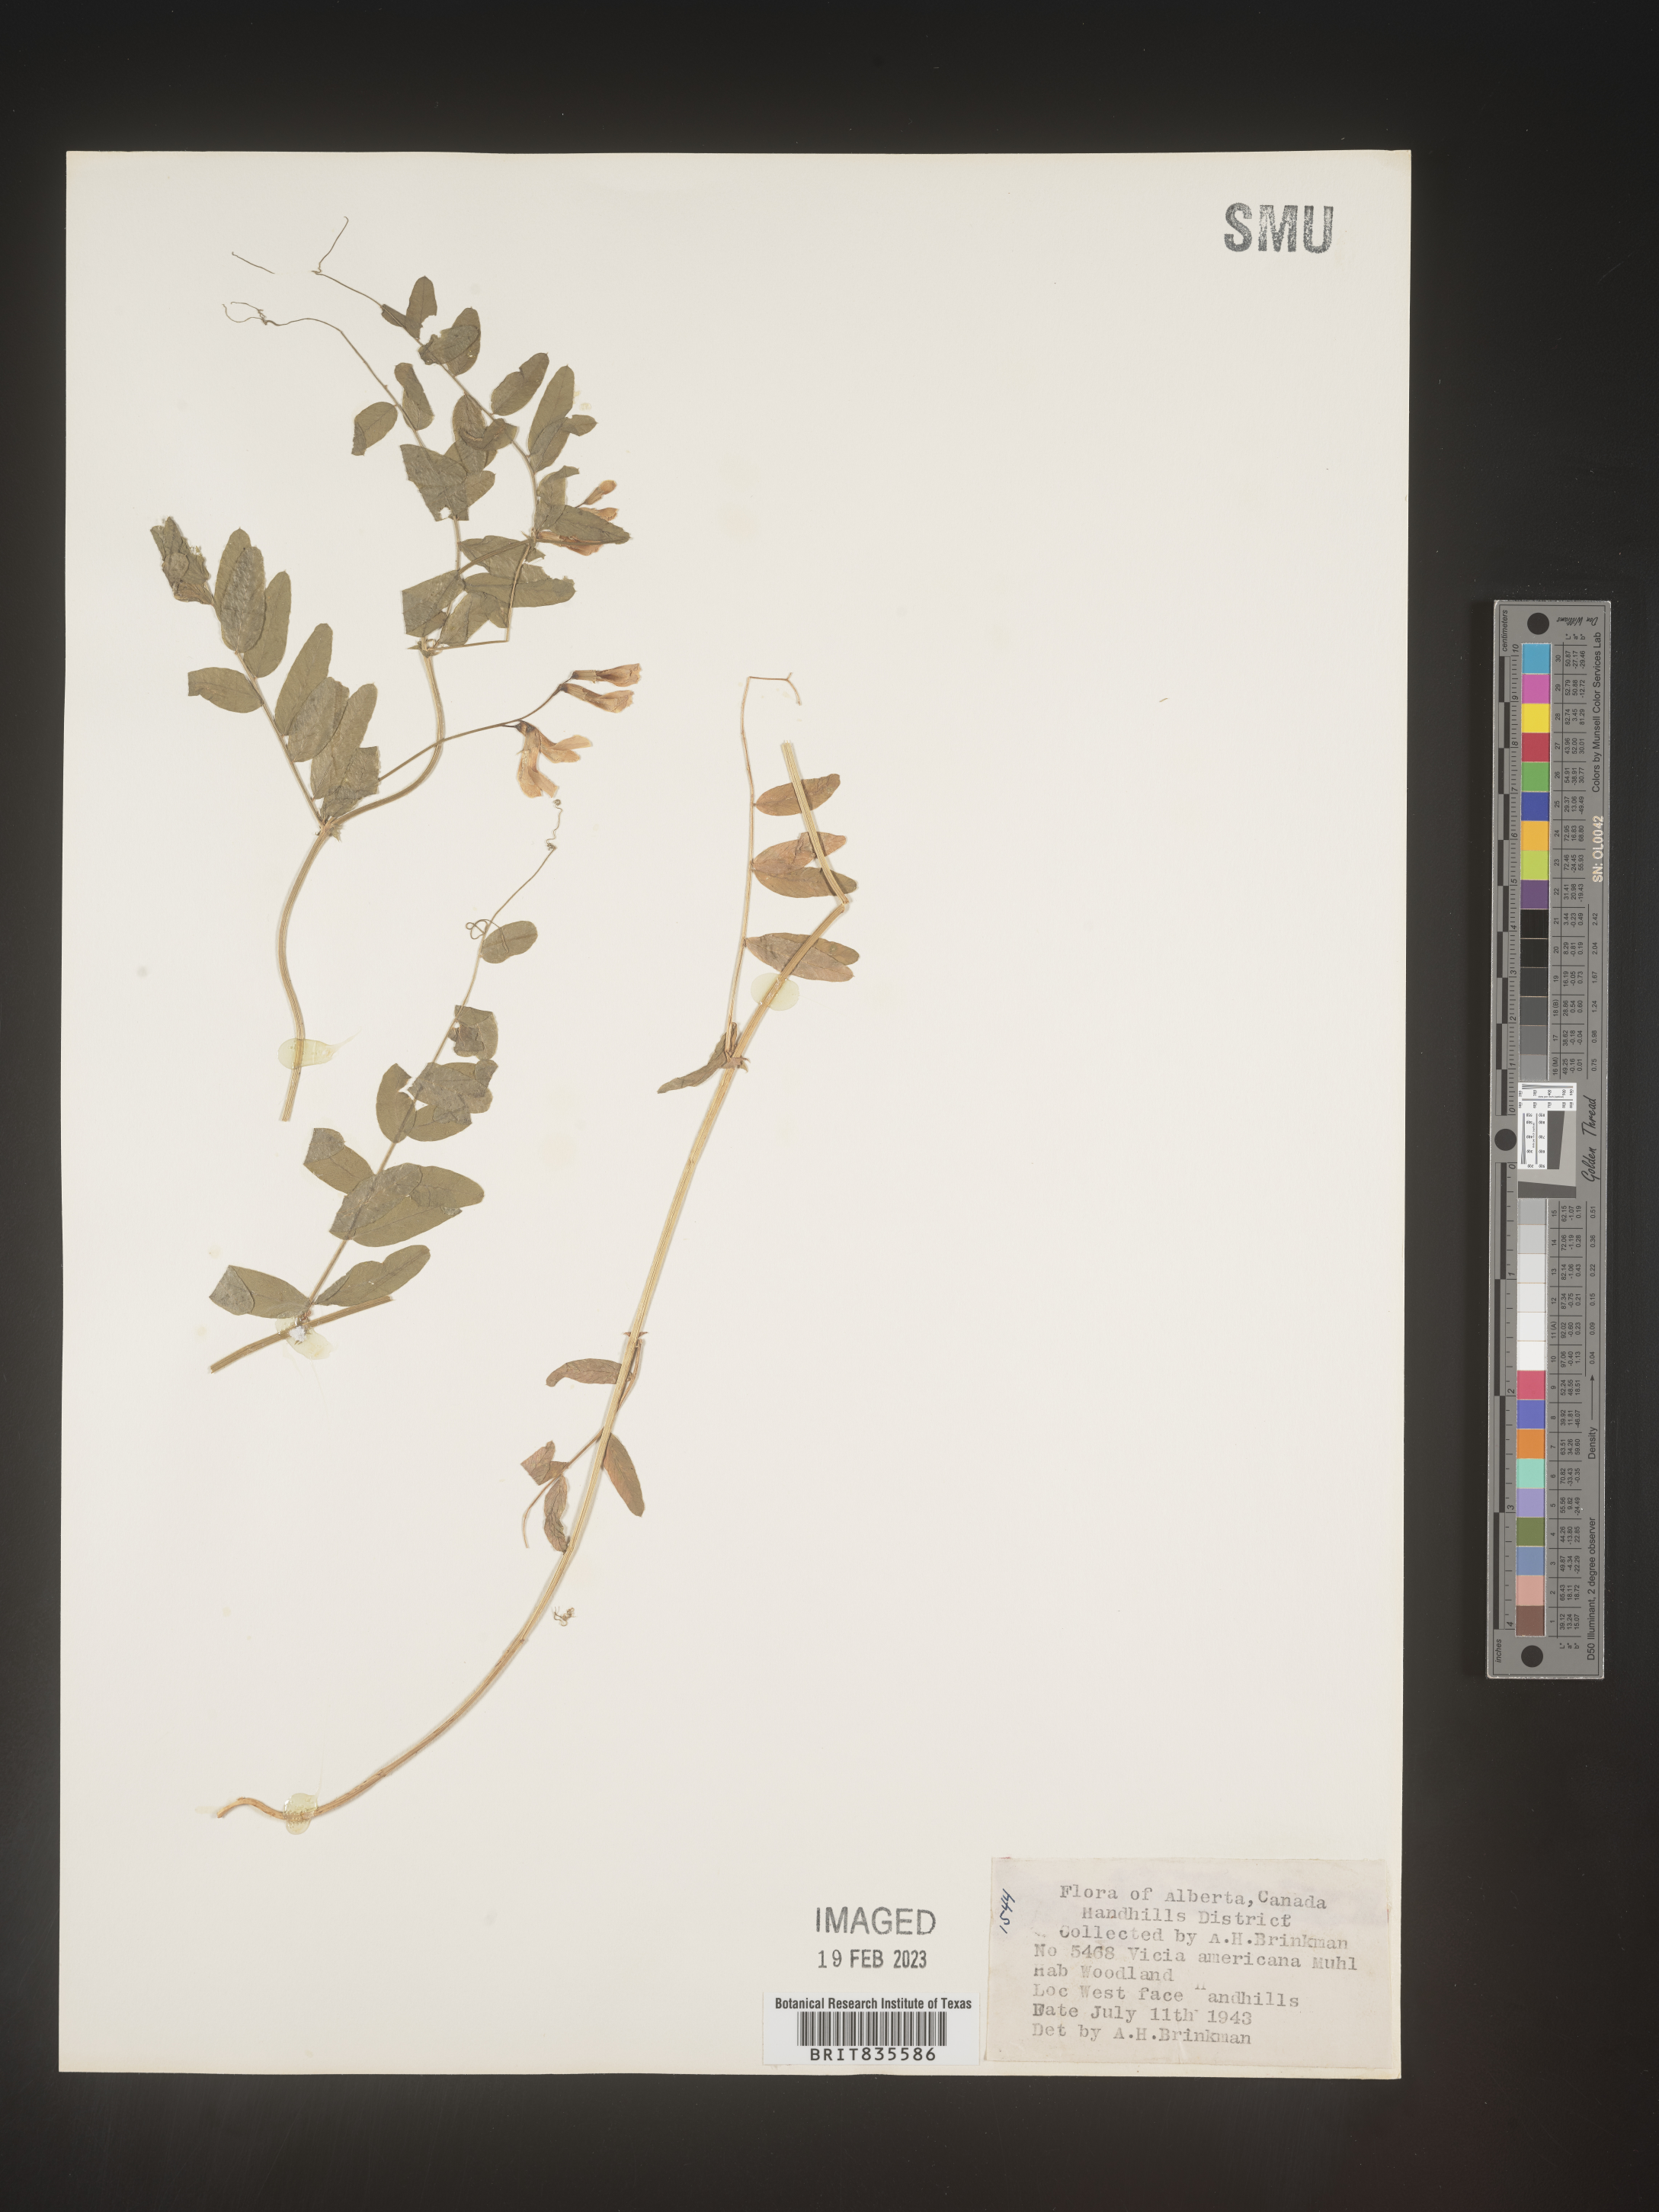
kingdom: Plantae
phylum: Tracheophyta
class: Magnoliopsida
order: Fabales
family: Fabaceae
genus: Vicia
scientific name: Vicia americana
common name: American vetch
